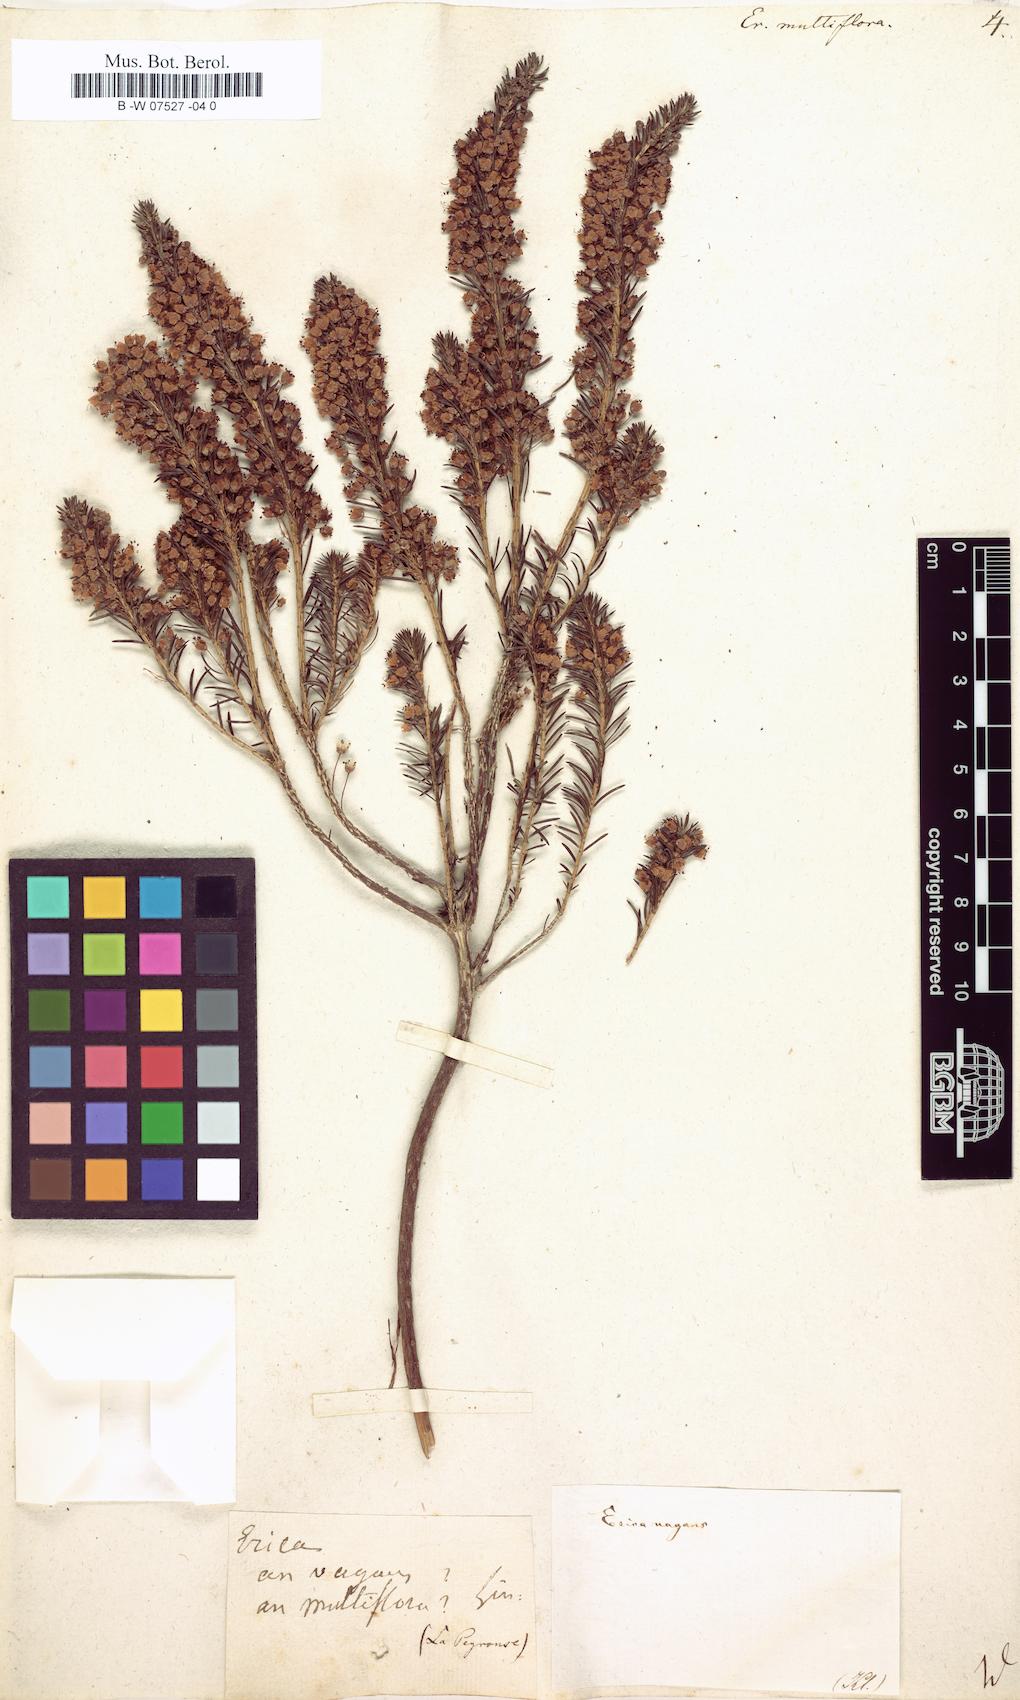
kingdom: Plantae
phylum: Tracheophyta
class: Magnoliopsida
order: Ericales
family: Ericaceae
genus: Erica
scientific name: Erica multiflora
